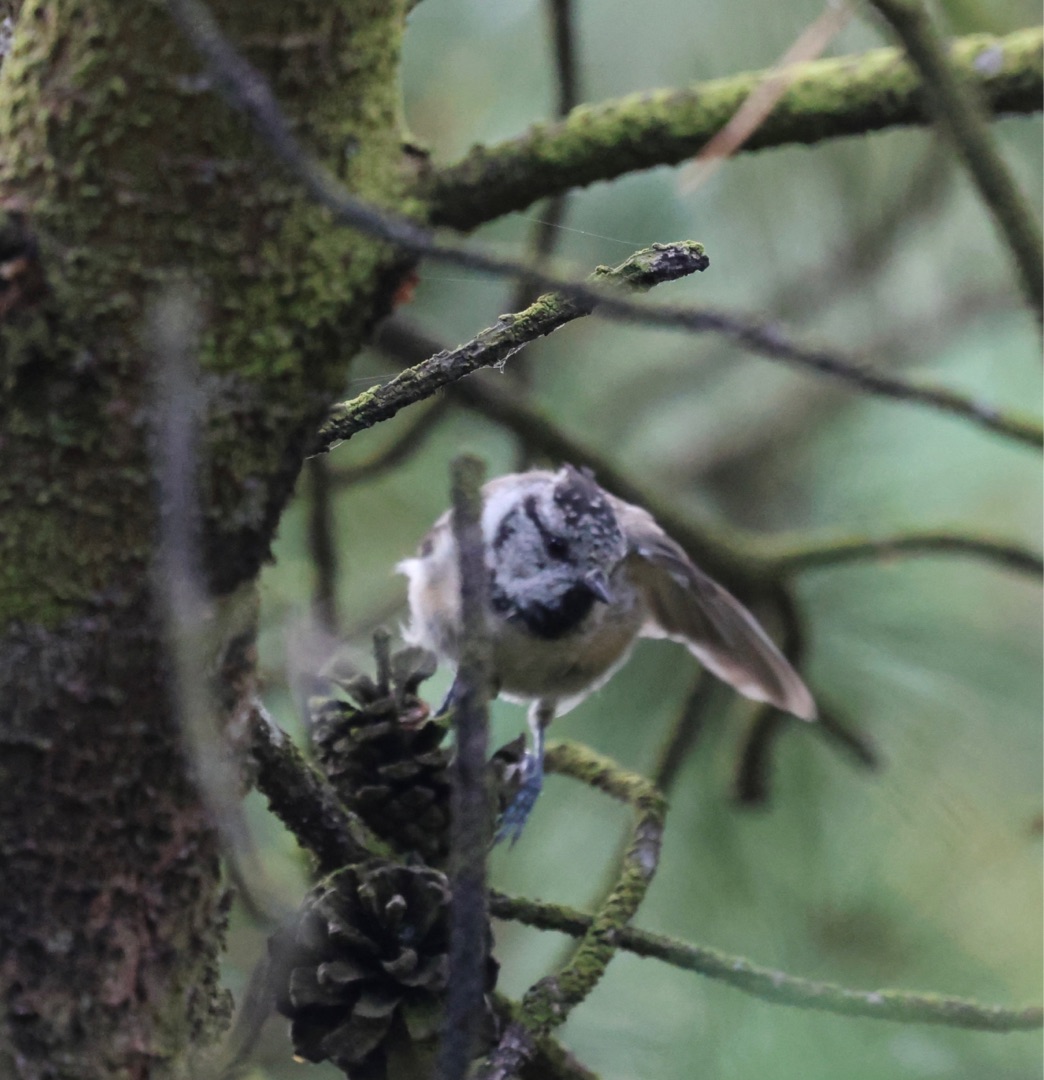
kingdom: Animalia
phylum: Chordata
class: Aves
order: Passeriformes
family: Paridae
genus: Lophophanes
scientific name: Lophophanes cristatus
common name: Topmejse
